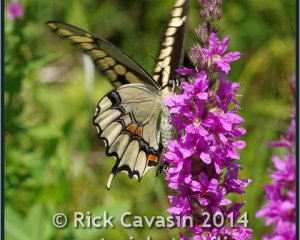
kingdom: Animalia
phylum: Arthropoda
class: Insecta
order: Lepidoptera
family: Papilionidae
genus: Papilio
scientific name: Papilio cresphontes
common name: Eastern Giant Swallowtail
